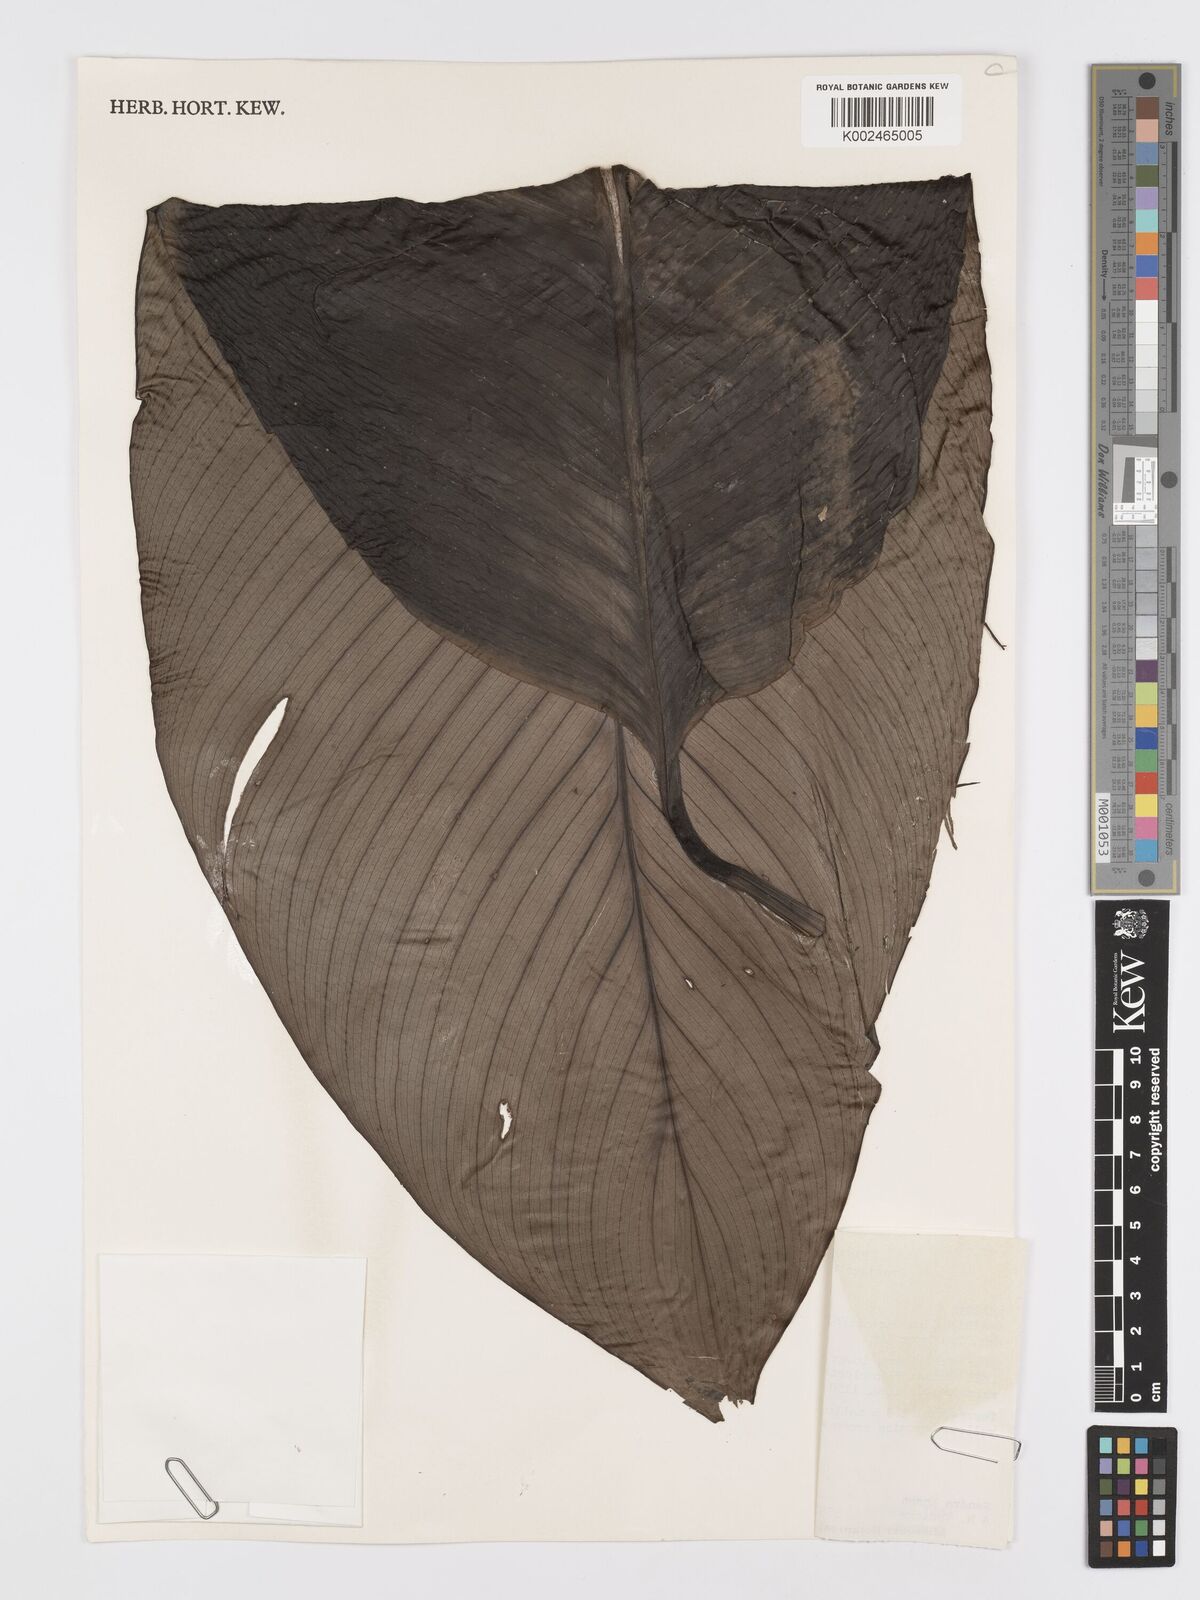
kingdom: Plantae
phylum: Tracheophyta
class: Liliopsida
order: Alismatales
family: Araceae
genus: Spathiphyllum
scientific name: Spathiphyllum phryniifolium
